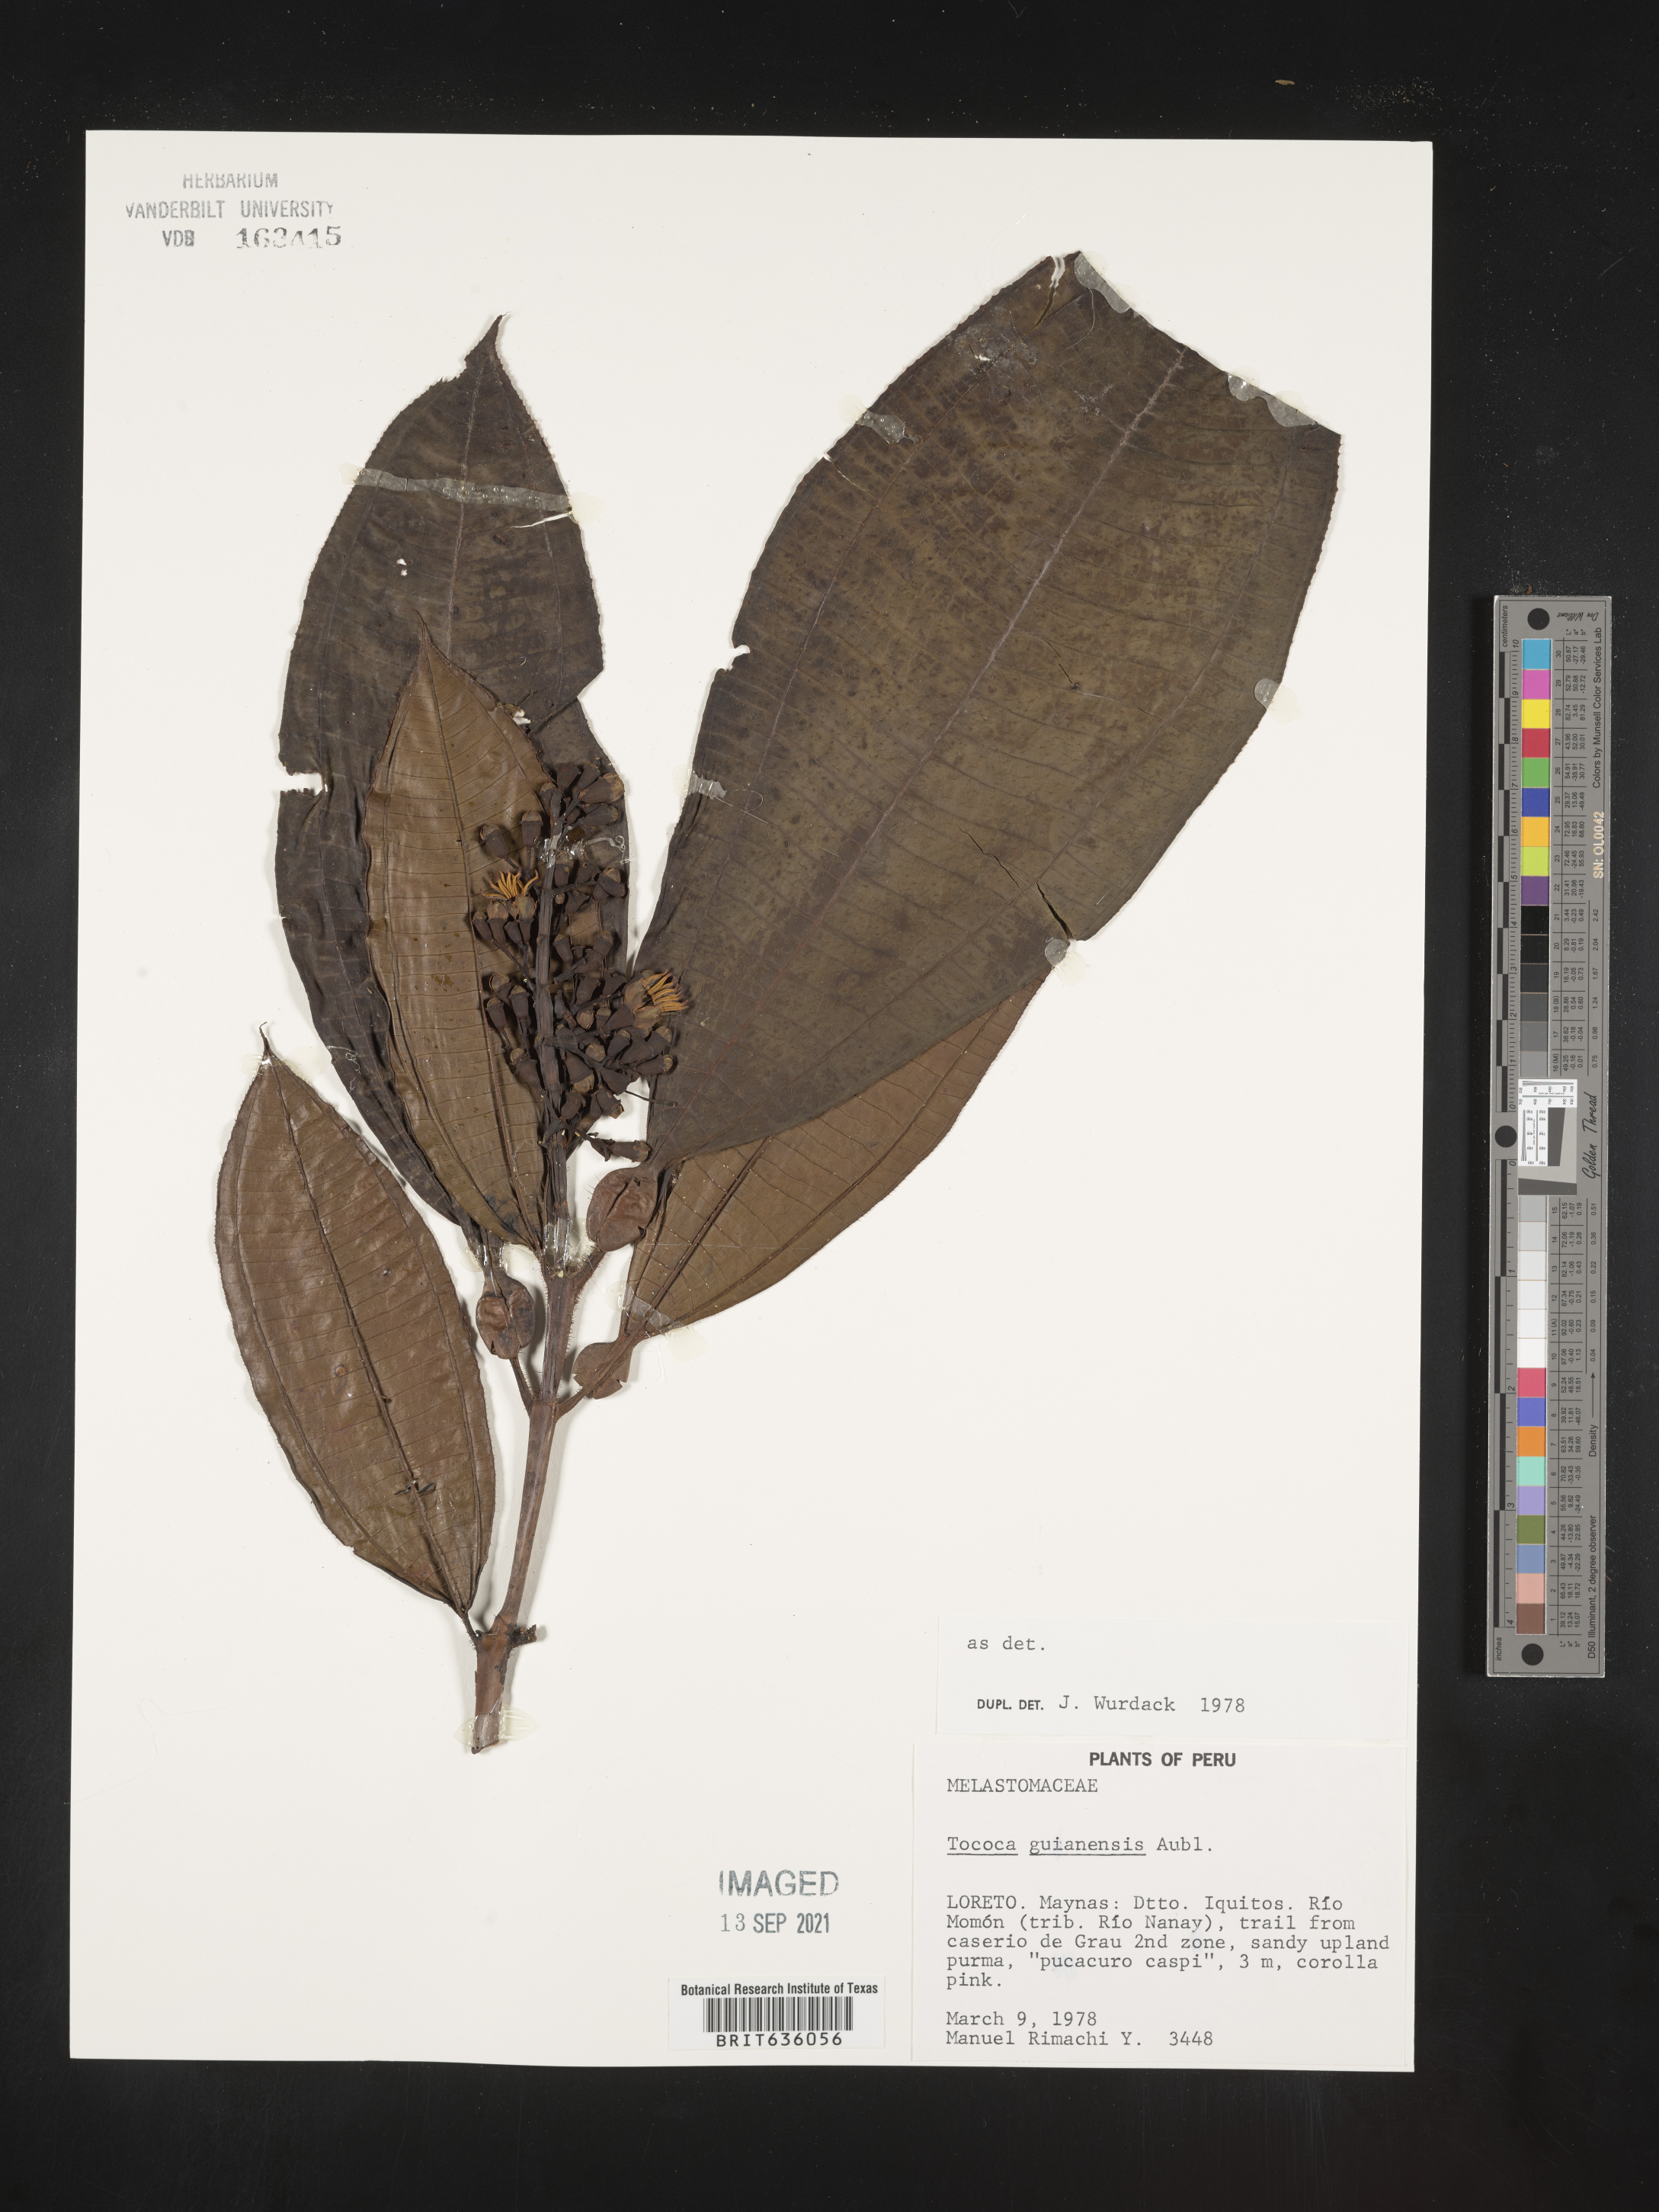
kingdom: Plantae
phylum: Tracheophyta
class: Magnoliopsida
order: Myrtales
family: Melastomataceae
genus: Miconia
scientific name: Miconia
